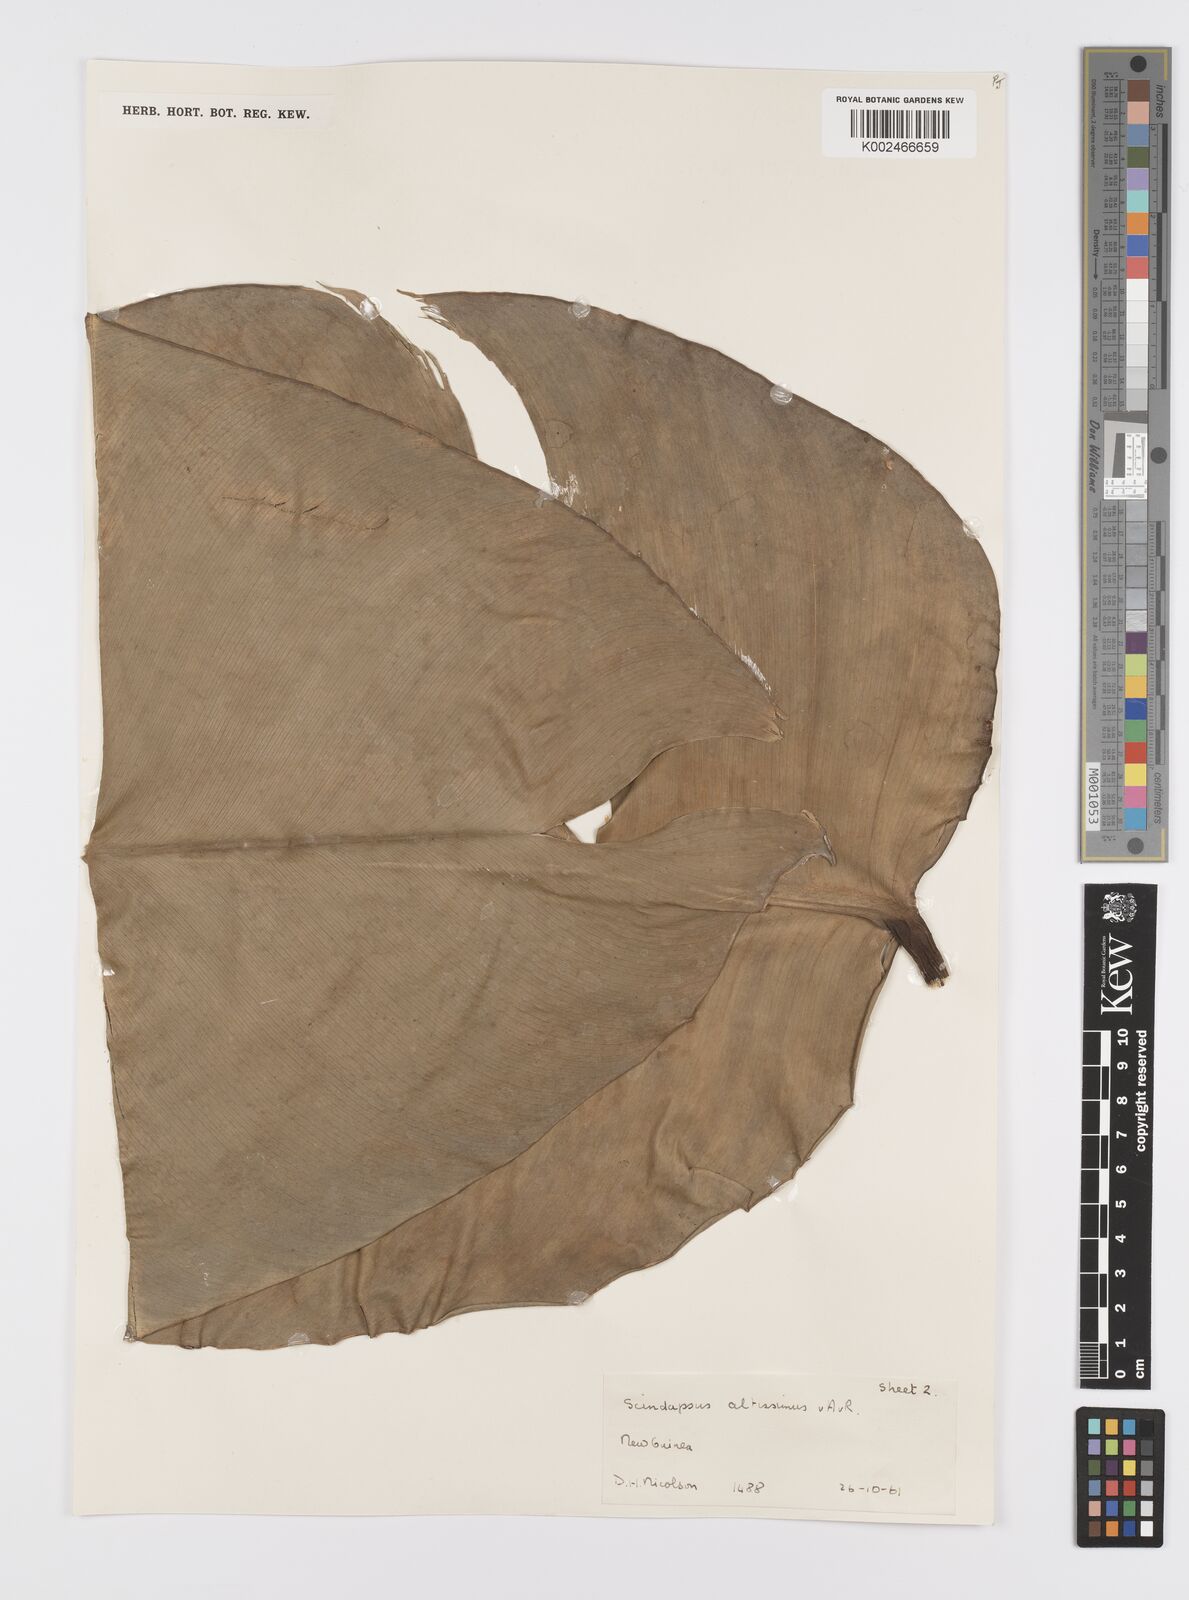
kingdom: Plantae
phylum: Tracheophyta
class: Liliopsida
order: Alismatales
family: Araceae
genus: Scindapsus
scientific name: Scindapsus altissimus
